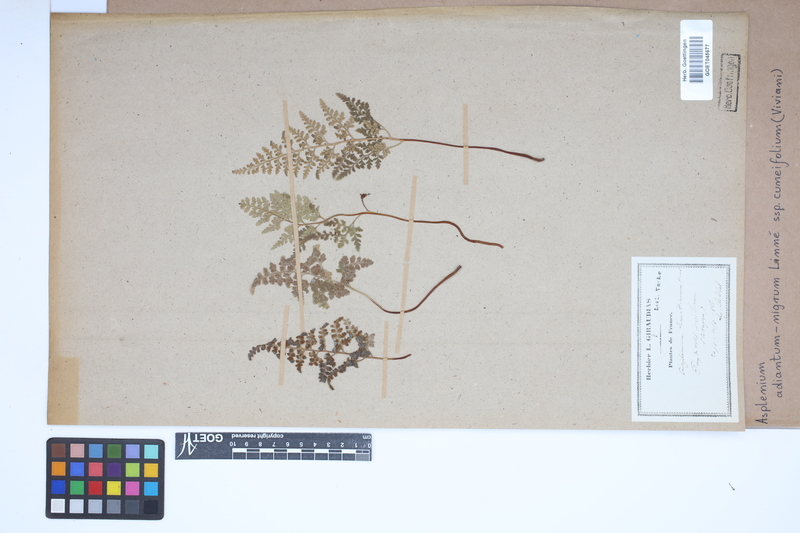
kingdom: Plantae
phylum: Tracheophyta
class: Polypodiopsida
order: Polypodiales
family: Aspleniaceae
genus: Asplenium
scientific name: Asplenium cuneifolium
